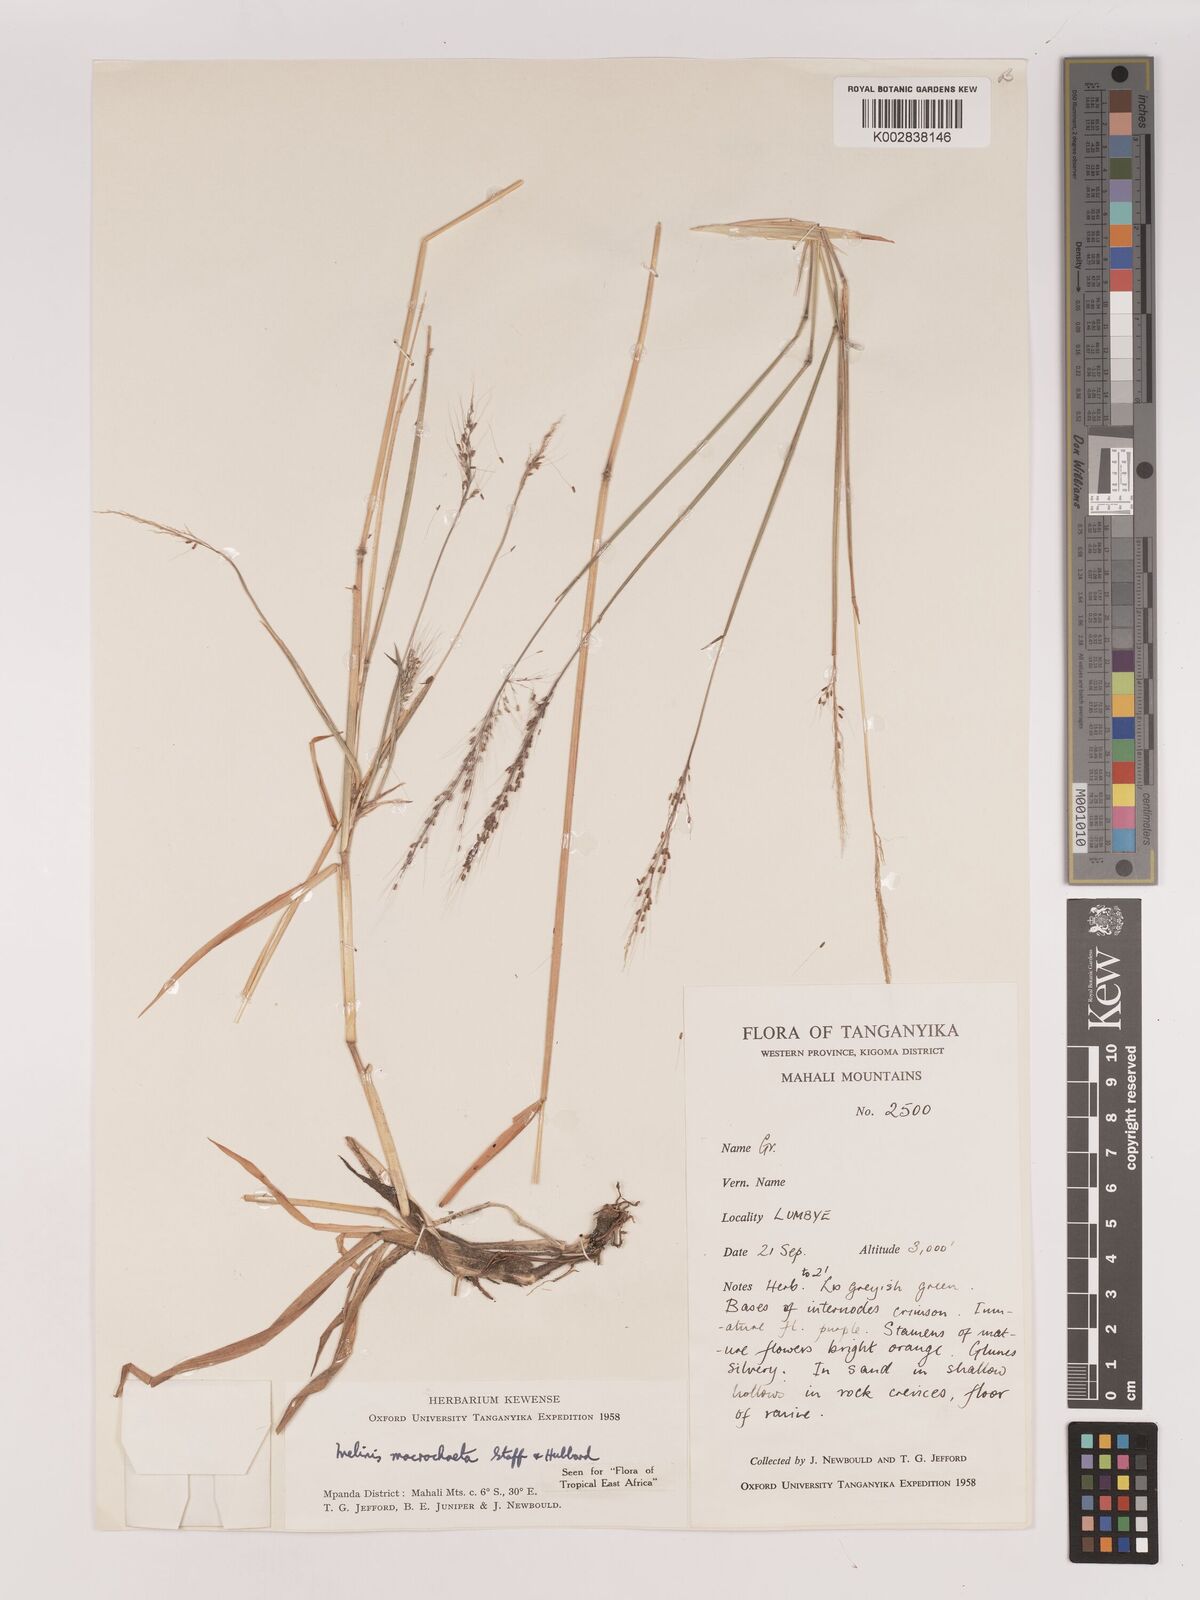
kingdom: Plantae
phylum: Tracheophyta
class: Liliopsida
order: Poales
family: Poaceae
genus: Melinis
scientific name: Melinis macrochaeta
